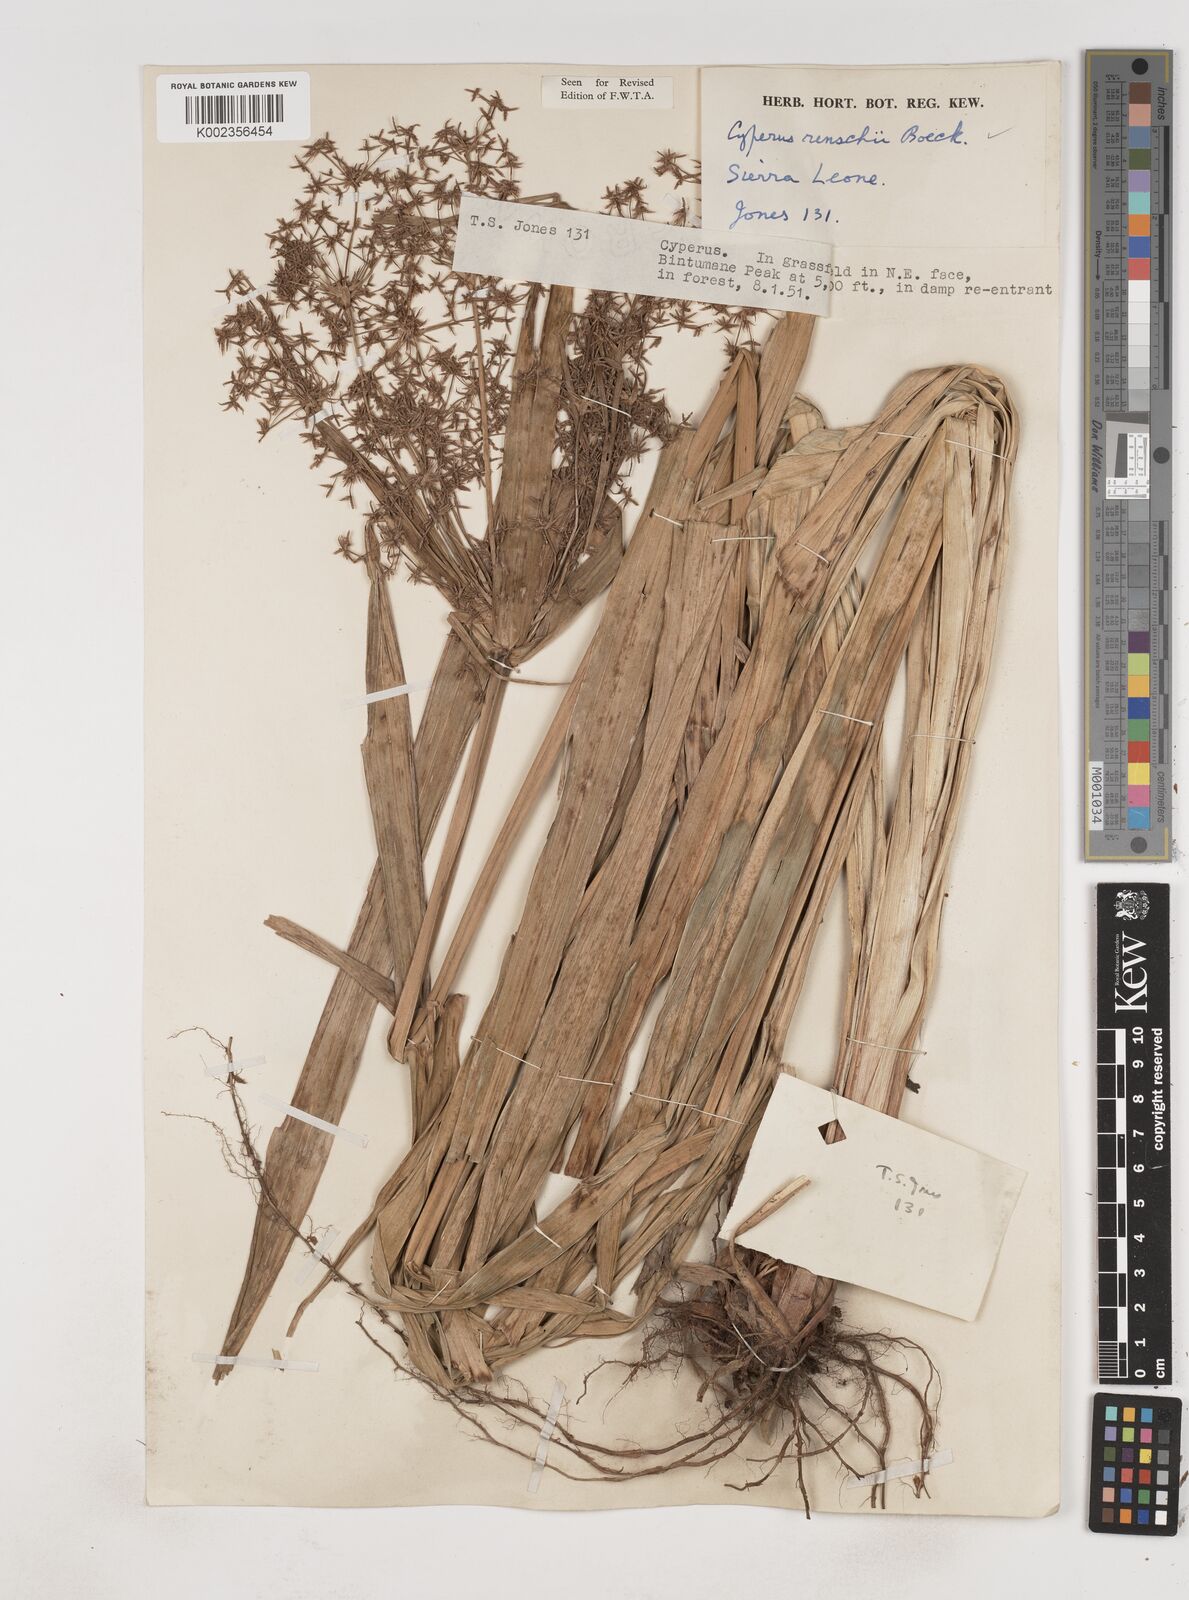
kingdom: Plantae
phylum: Tracheophyta
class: Liliopsida
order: Poales
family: Cyperaceae
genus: Cyperus
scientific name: Cyperus baronii
